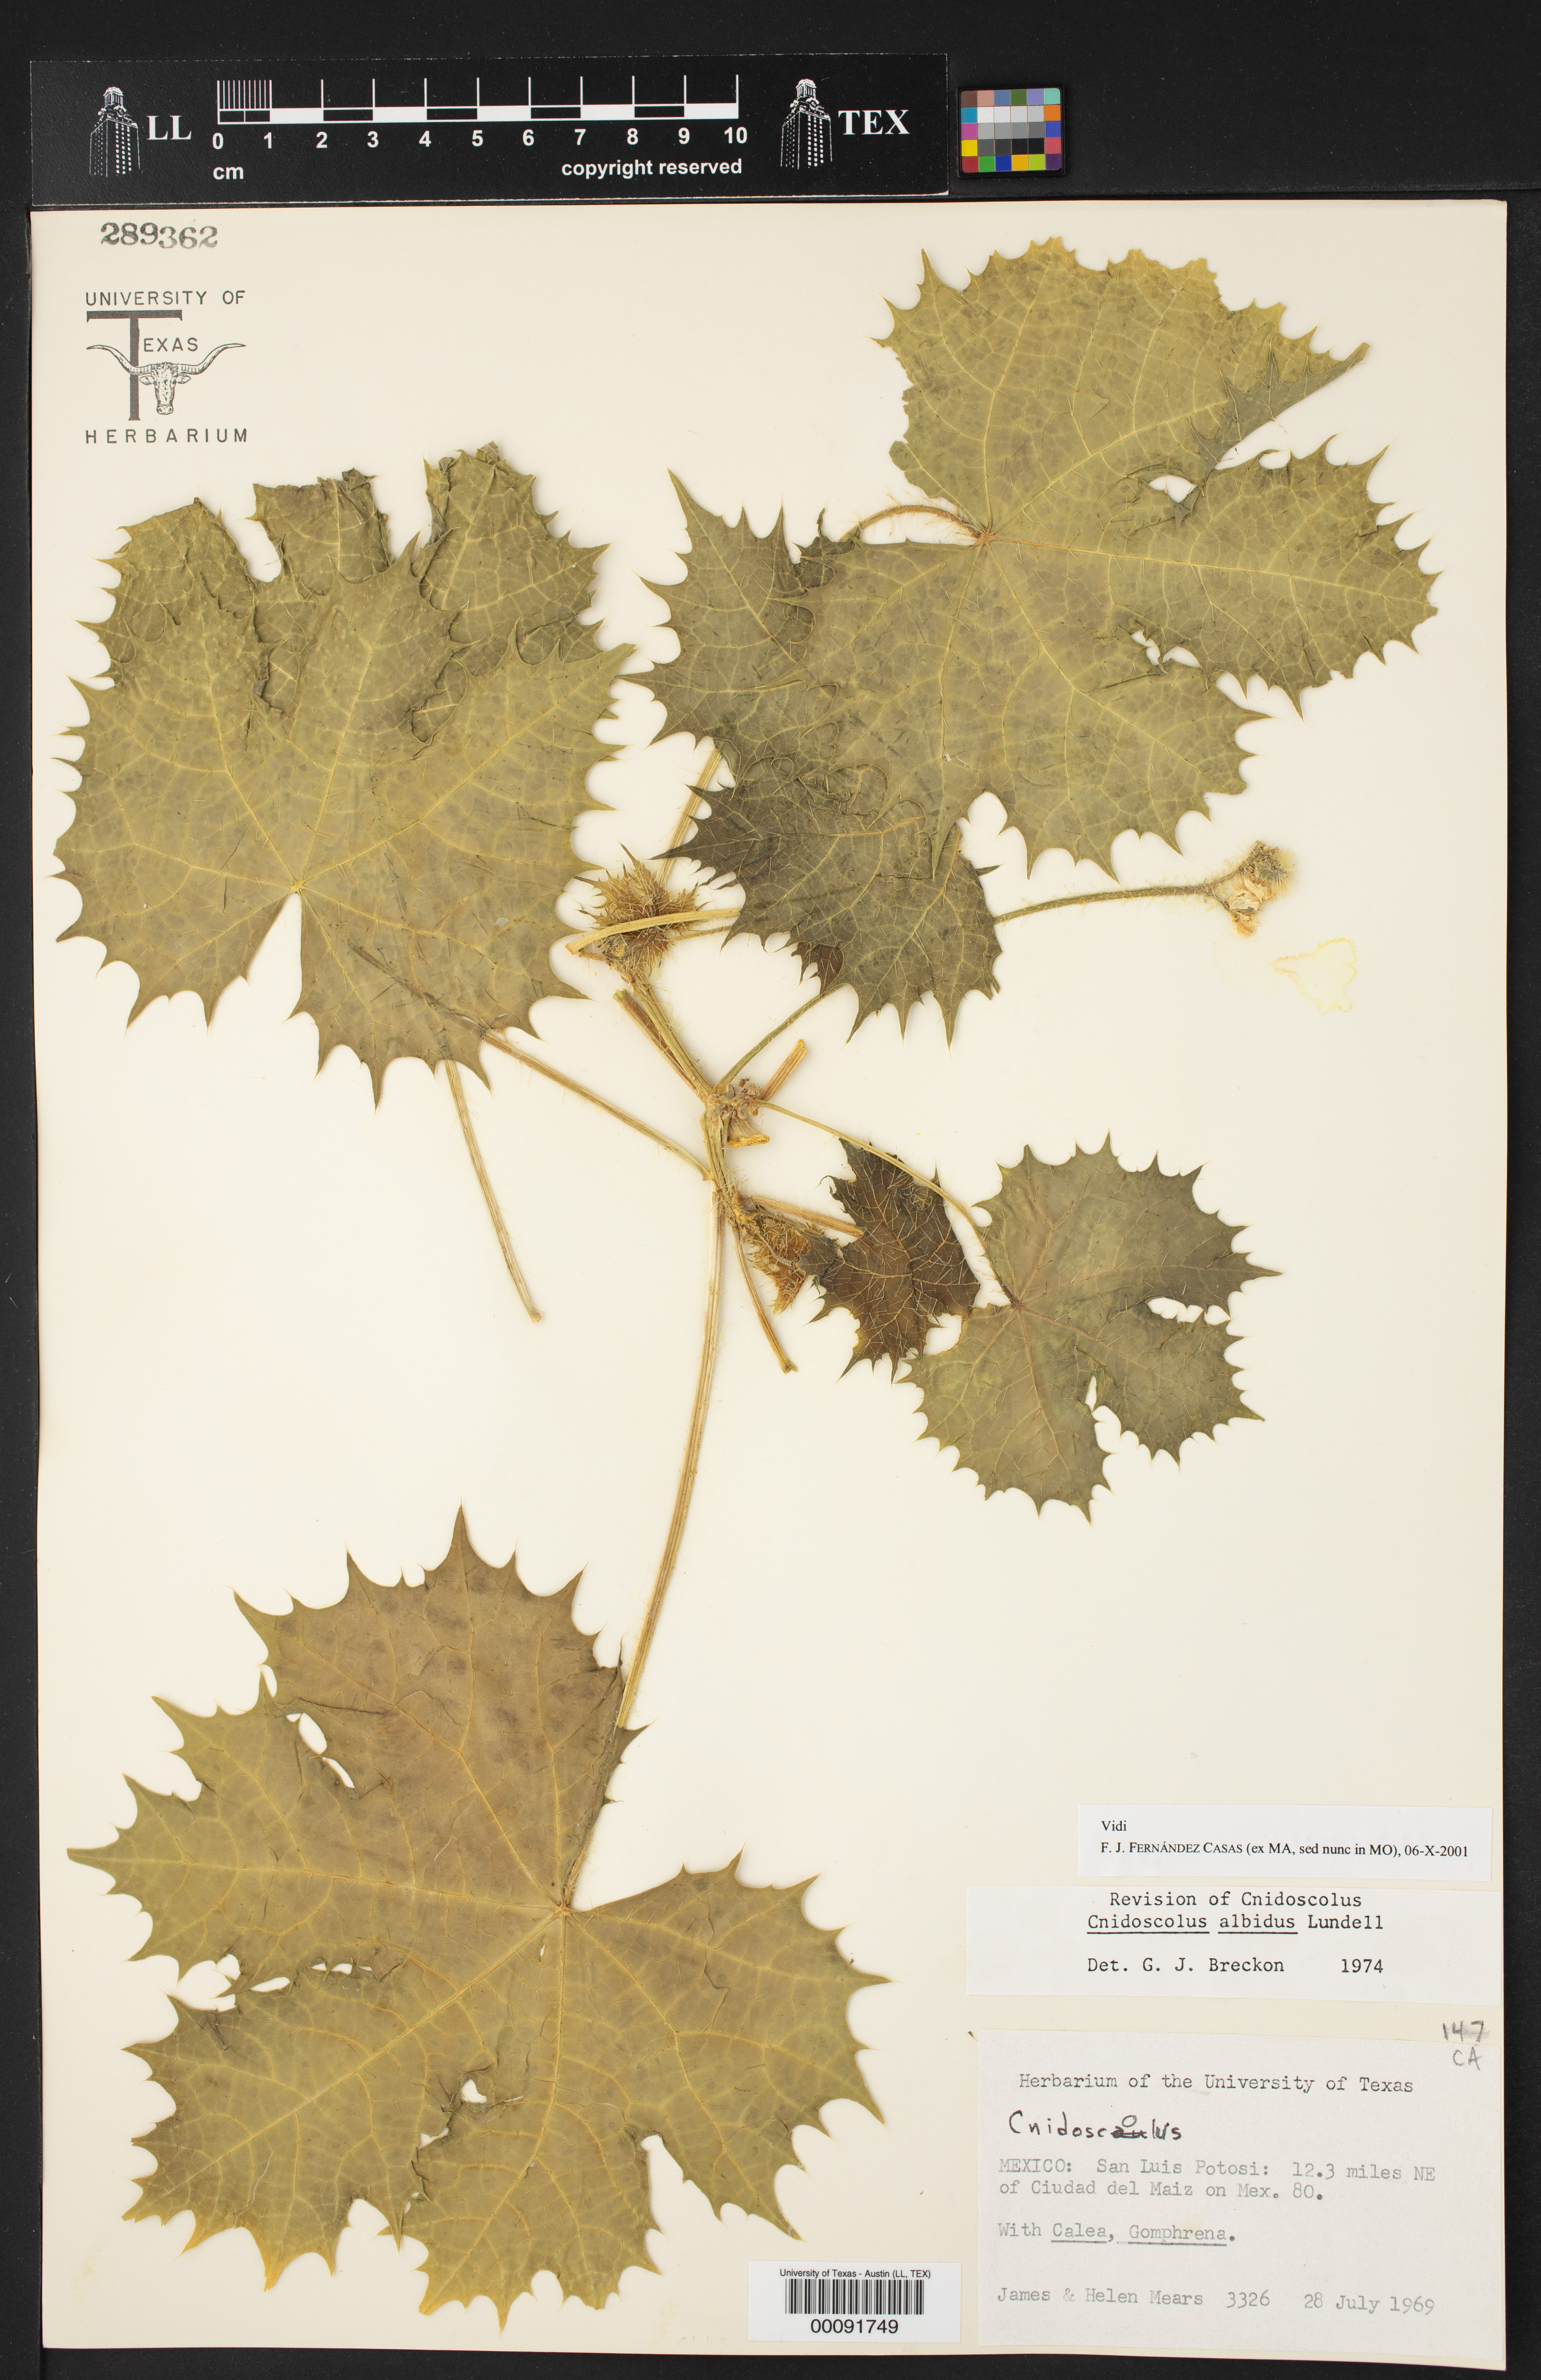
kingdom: Plantae
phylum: Tracheophyta
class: Magnoliopsida
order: Malpighiales
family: Euphorbiaceae
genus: Cnidoscolus
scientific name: Cnidoscolus albidus
